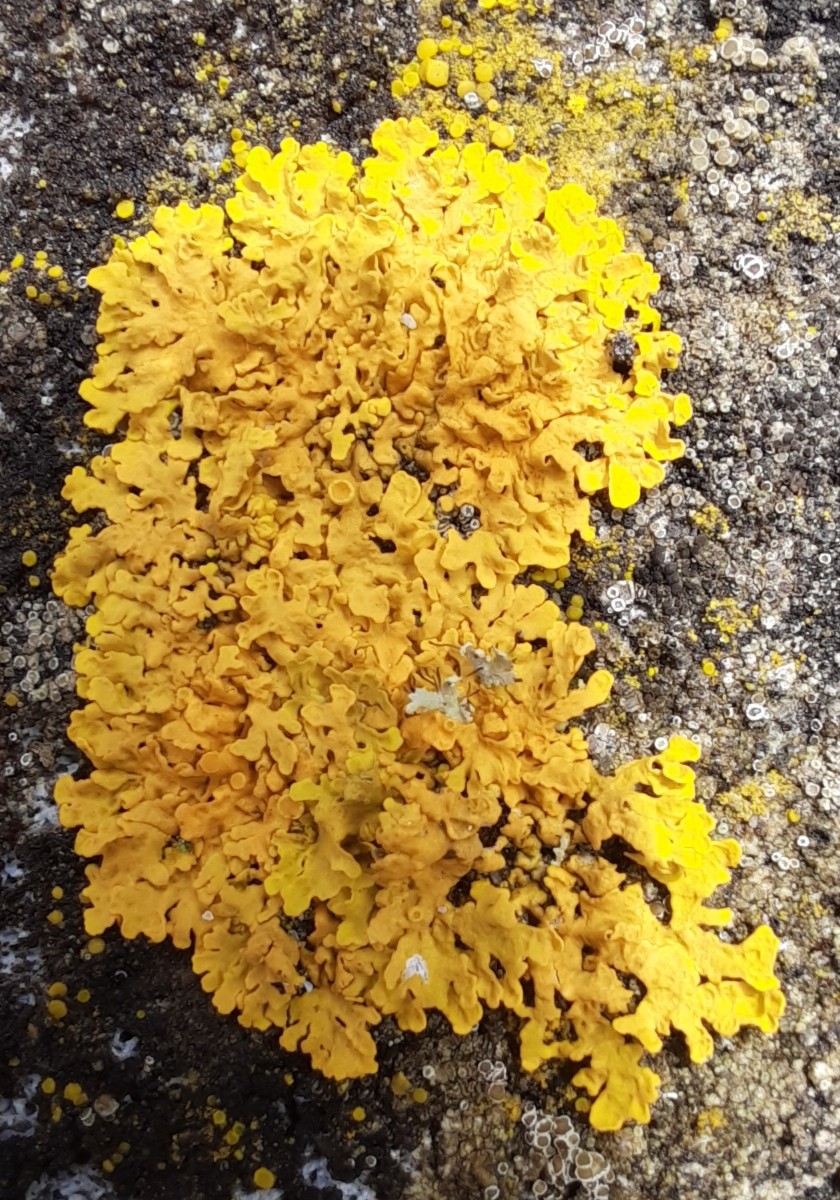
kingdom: Fungi
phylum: Ascomycota
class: Lecanoromycetes
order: Teloschistales
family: Teloschistaceae
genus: Xanthoria
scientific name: Xanthoria parietina
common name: almindelig væggelav
